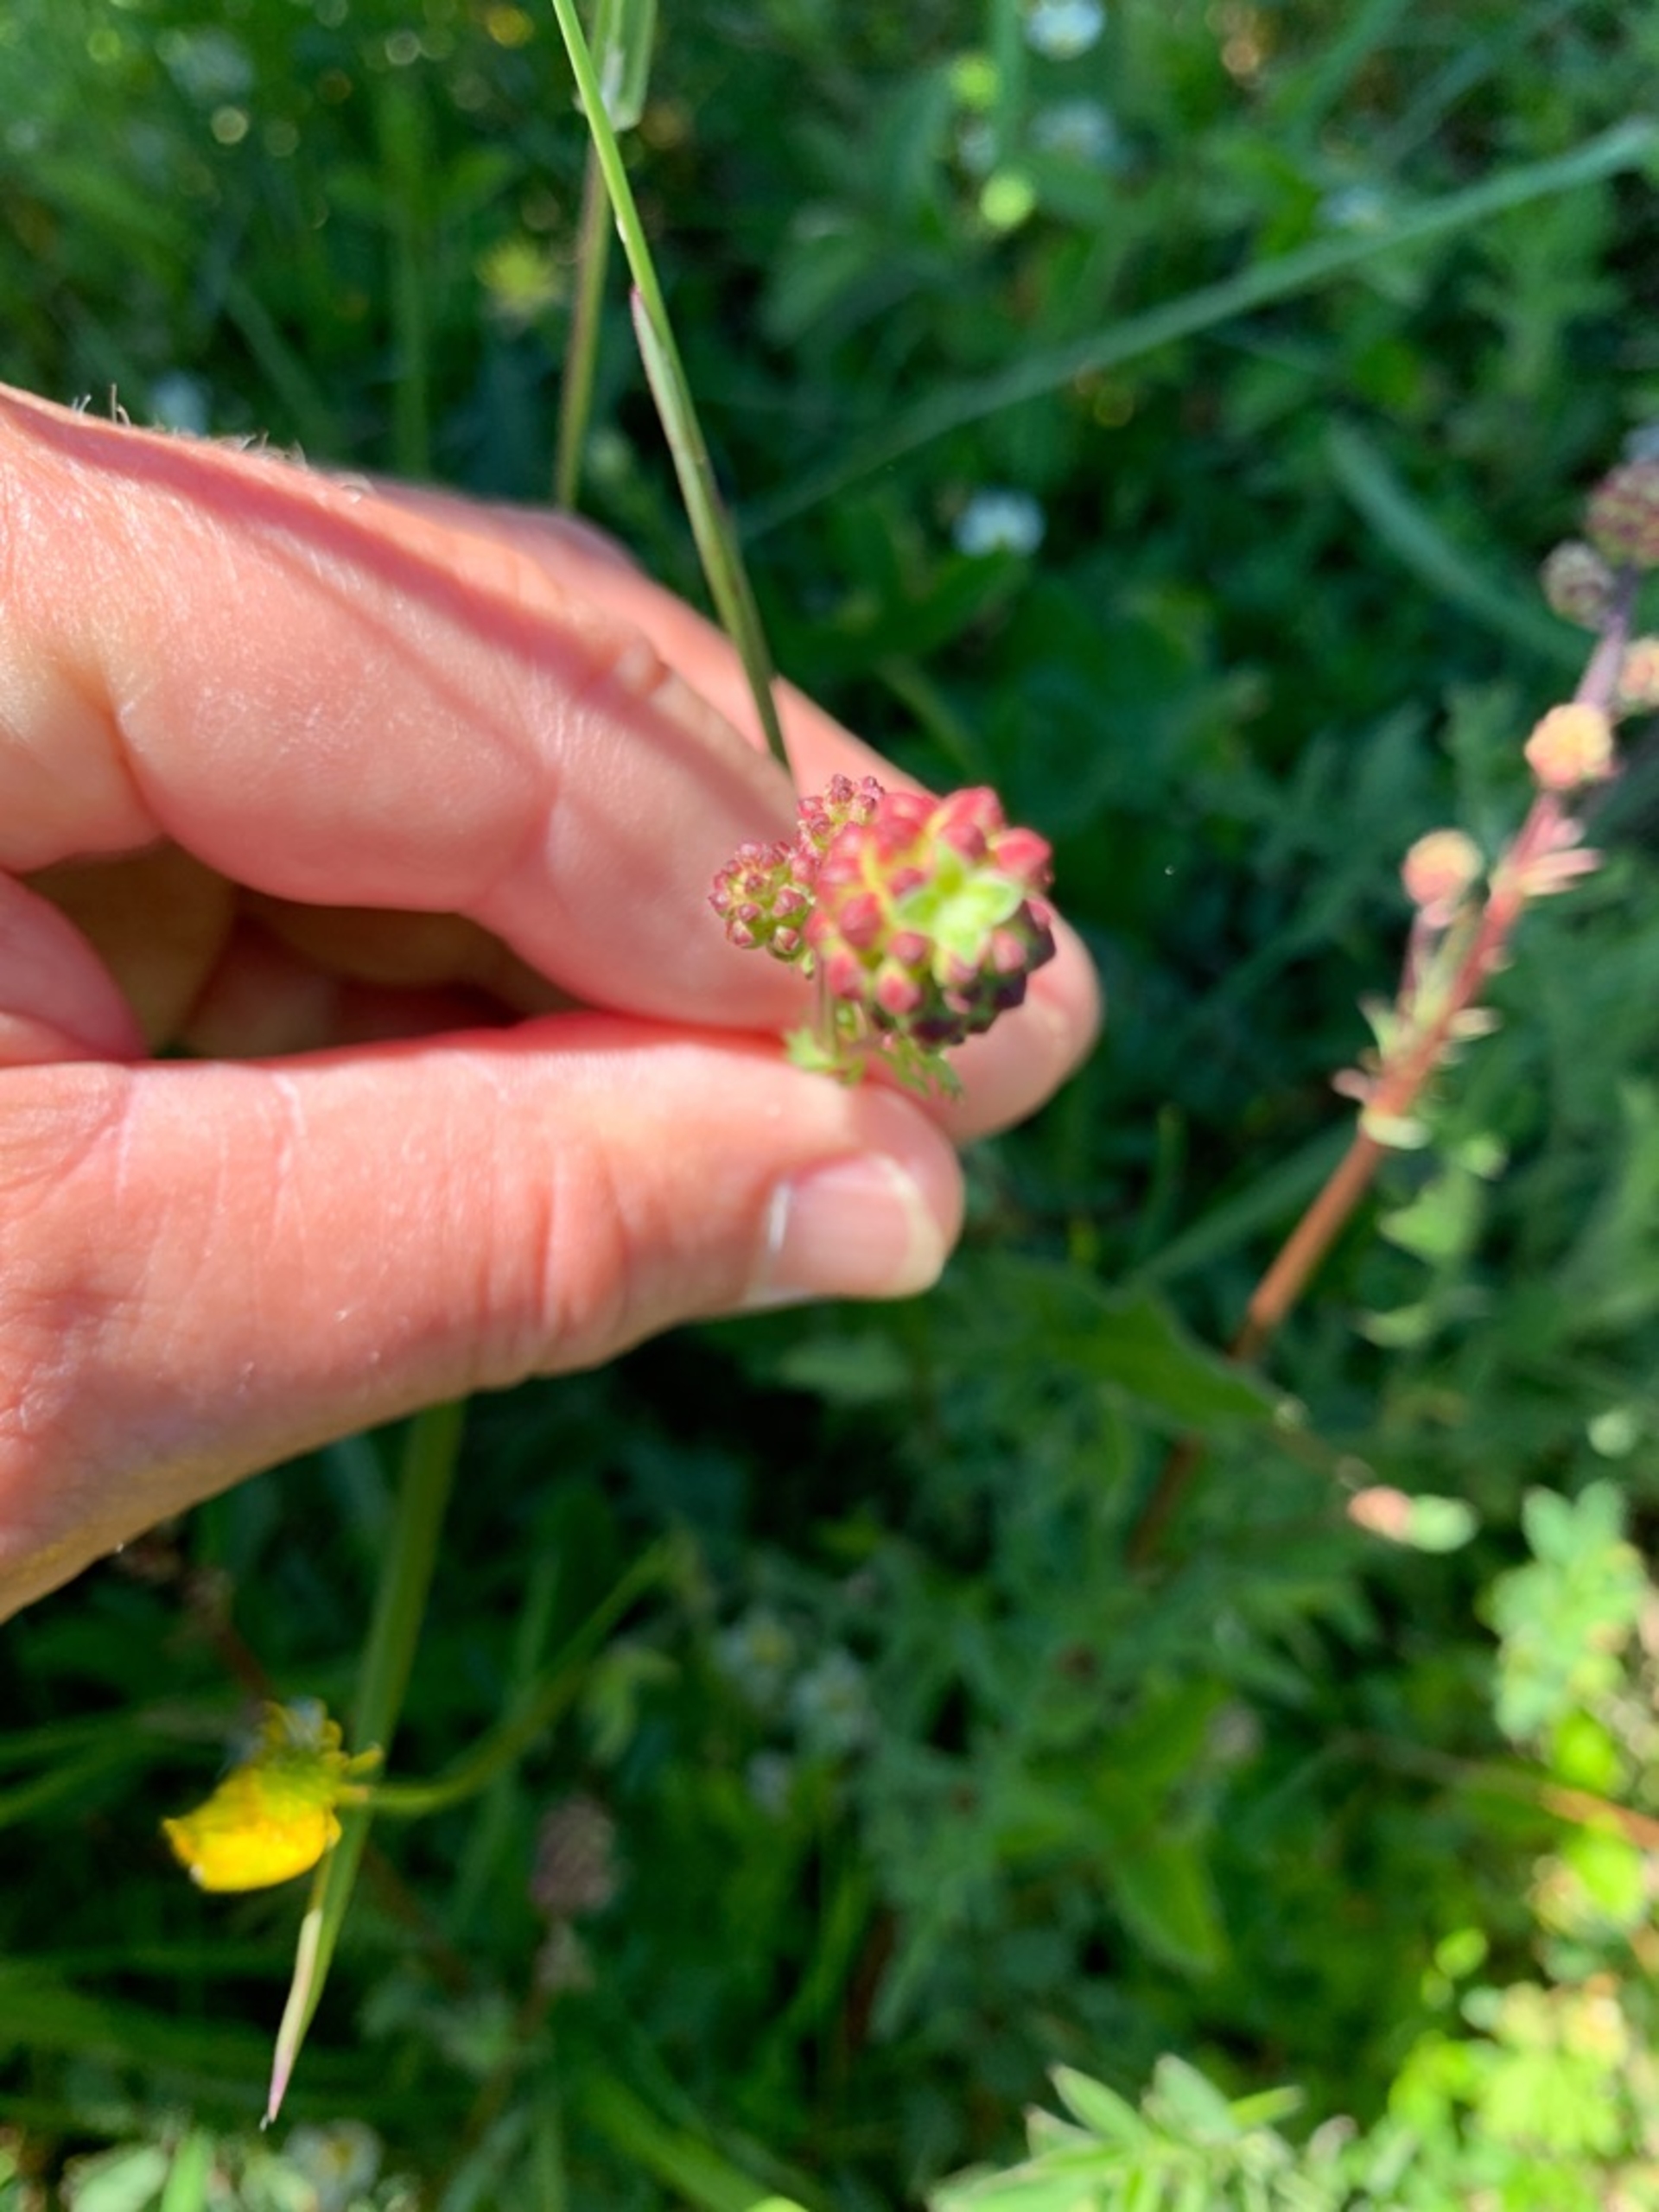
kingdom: Plantae
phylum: Tracheophyta
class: Magnoliopsida
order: Rosales
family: Rosaceae
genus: Poterium
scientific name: Poterium sanguisorba
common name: Bibernelle
